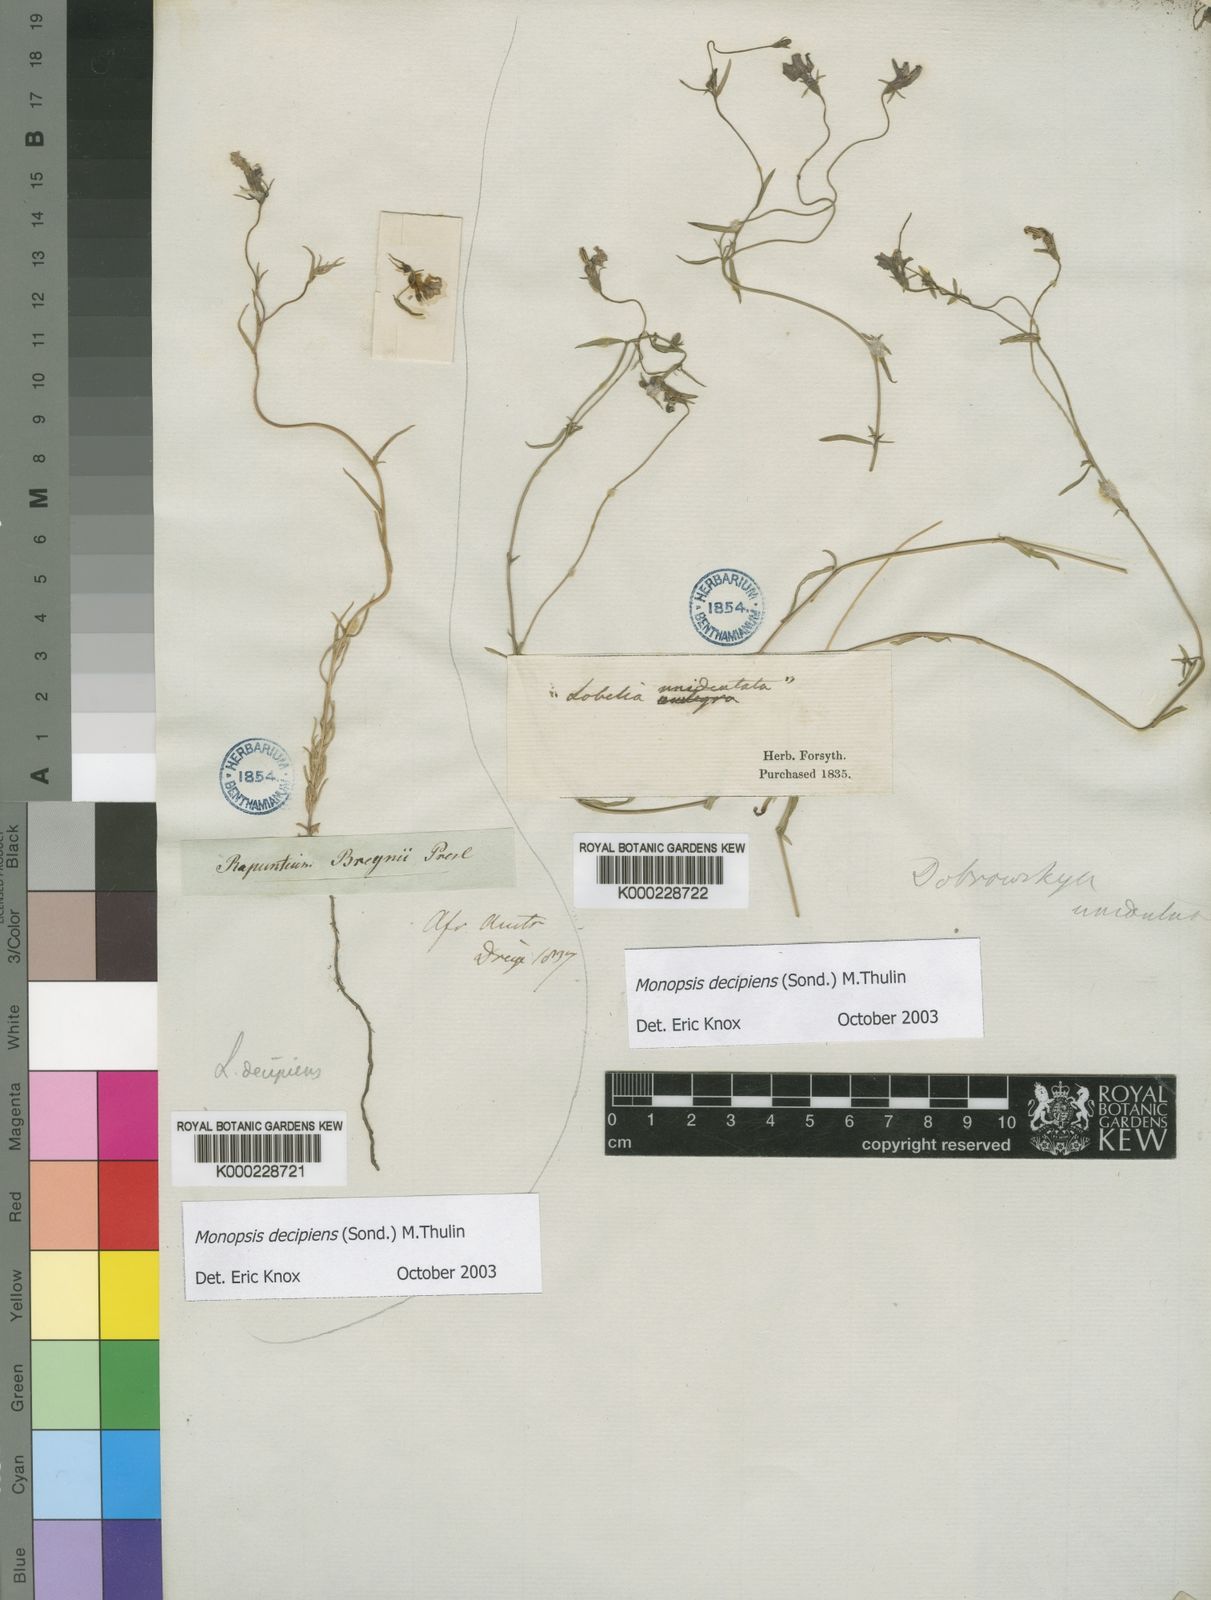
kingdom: Plantae
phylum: Tracheophyta
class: Magnoliopsida
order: Asterales
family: Campanulaceae
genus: Monopsis
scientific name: Monopsis decipiens
